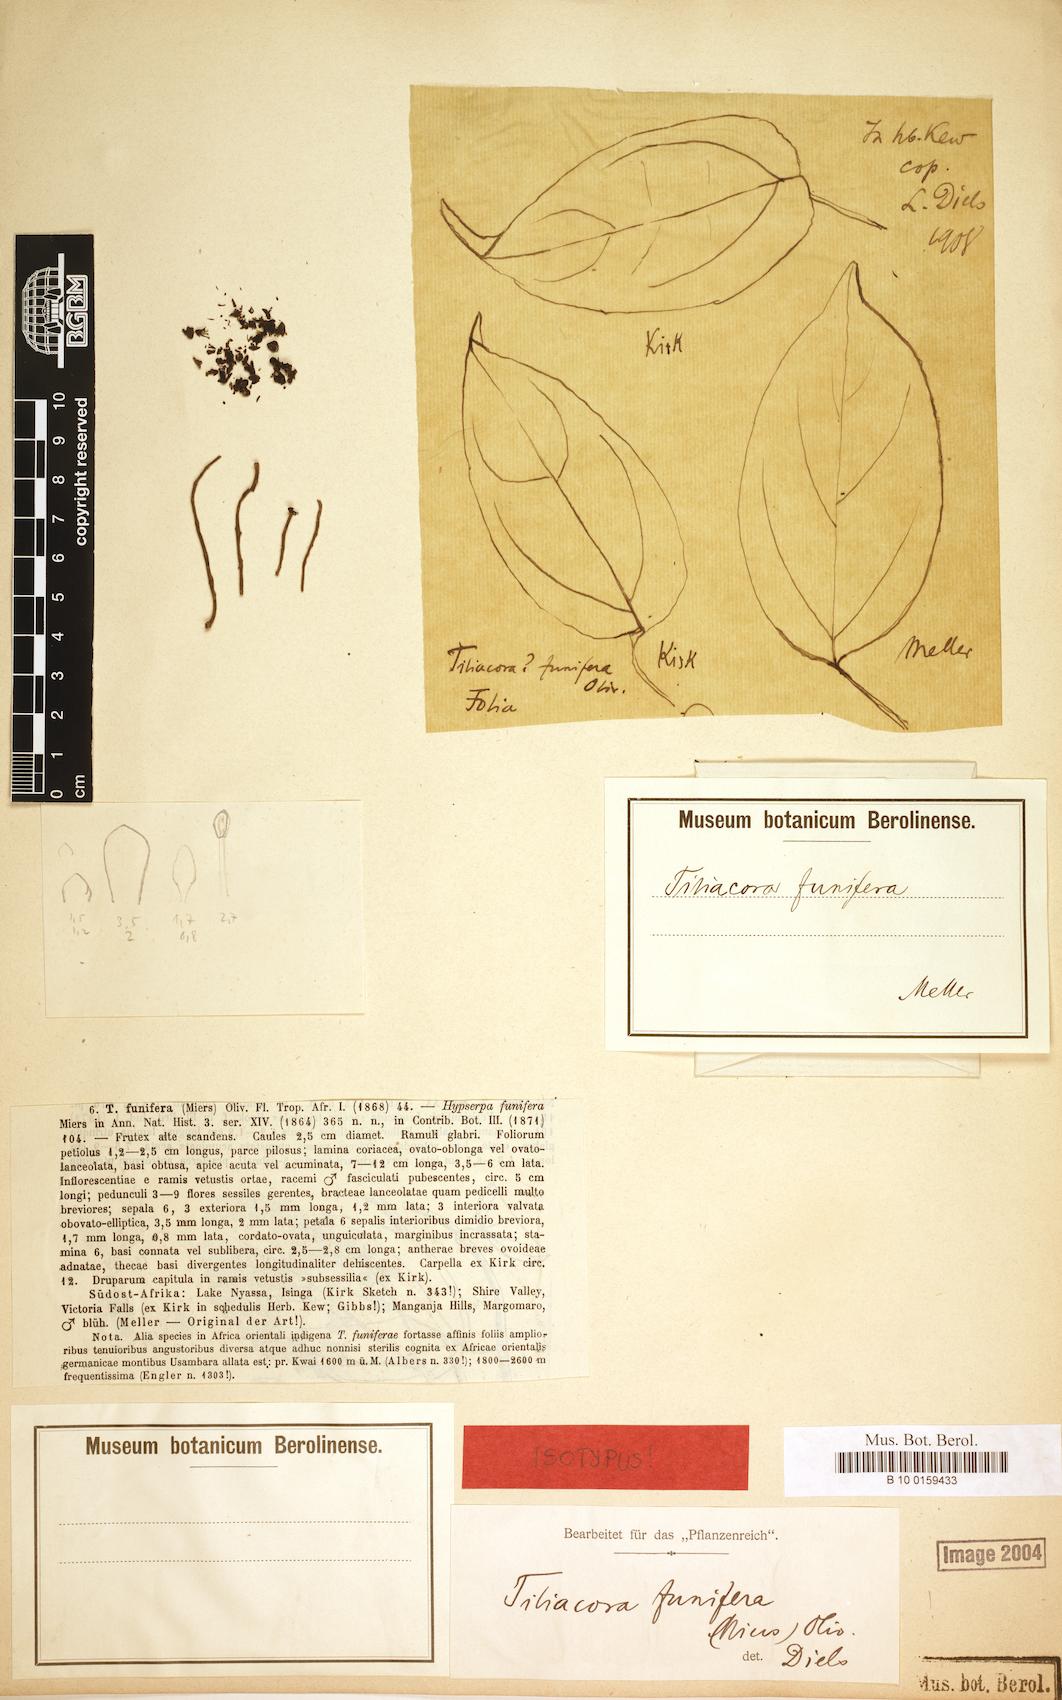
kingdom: Plantae
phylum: Tracheophyta
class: Magnoliopsida
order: Ranunculales
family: Menispermaceae
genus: Tiliacora
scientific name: Tiliacora funifera
